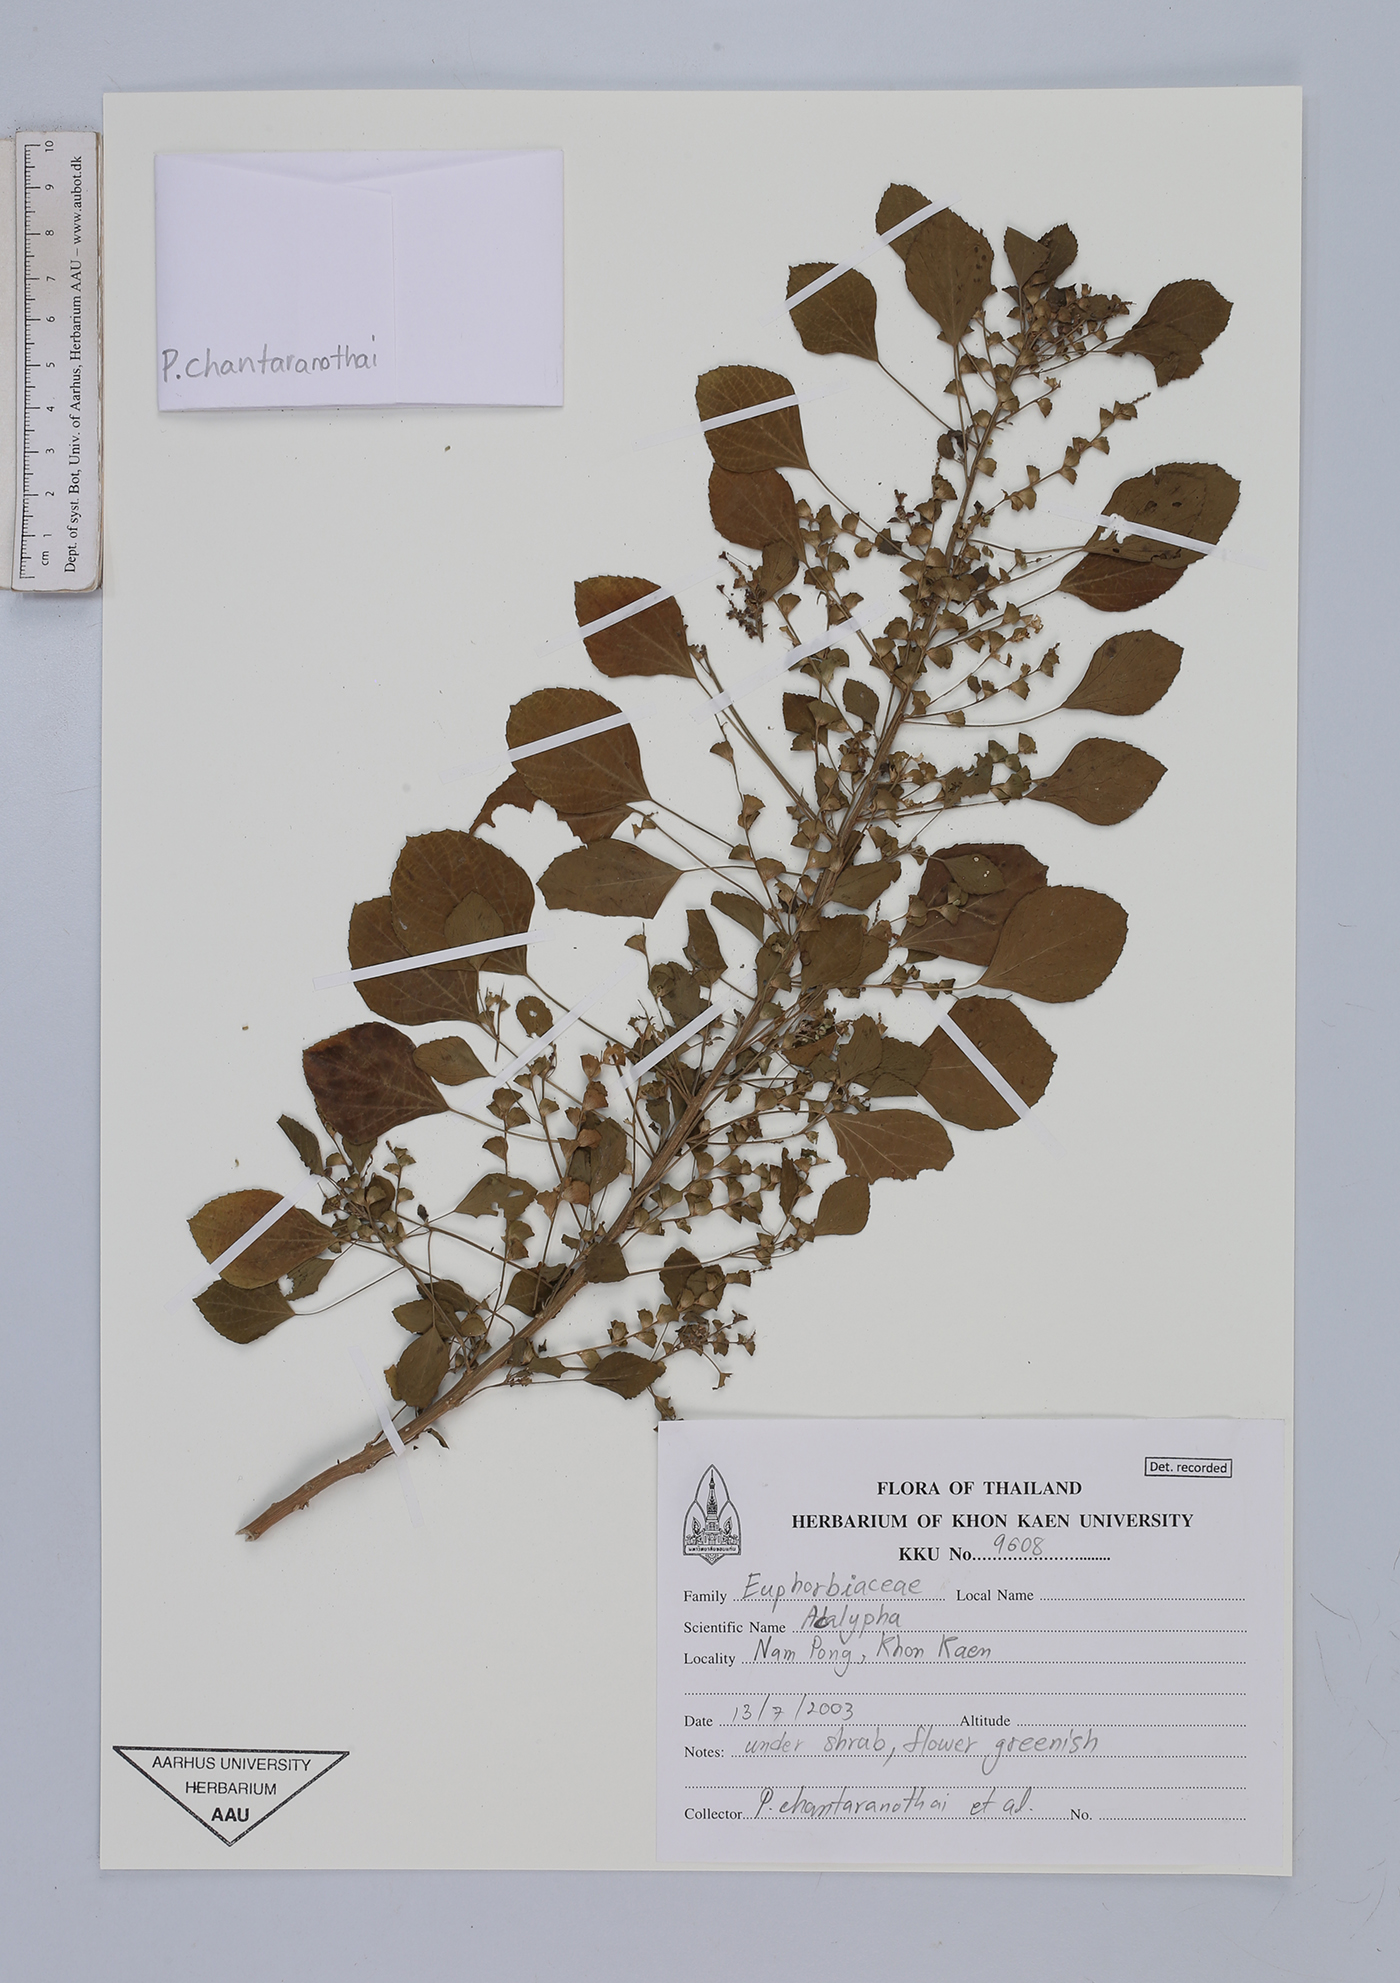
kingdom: Plantae
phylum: Tracheophyta
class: Magnoliopsida
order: Malpighiales
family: Euphorbiaceae
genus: Acalypha
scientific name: Acalypha
